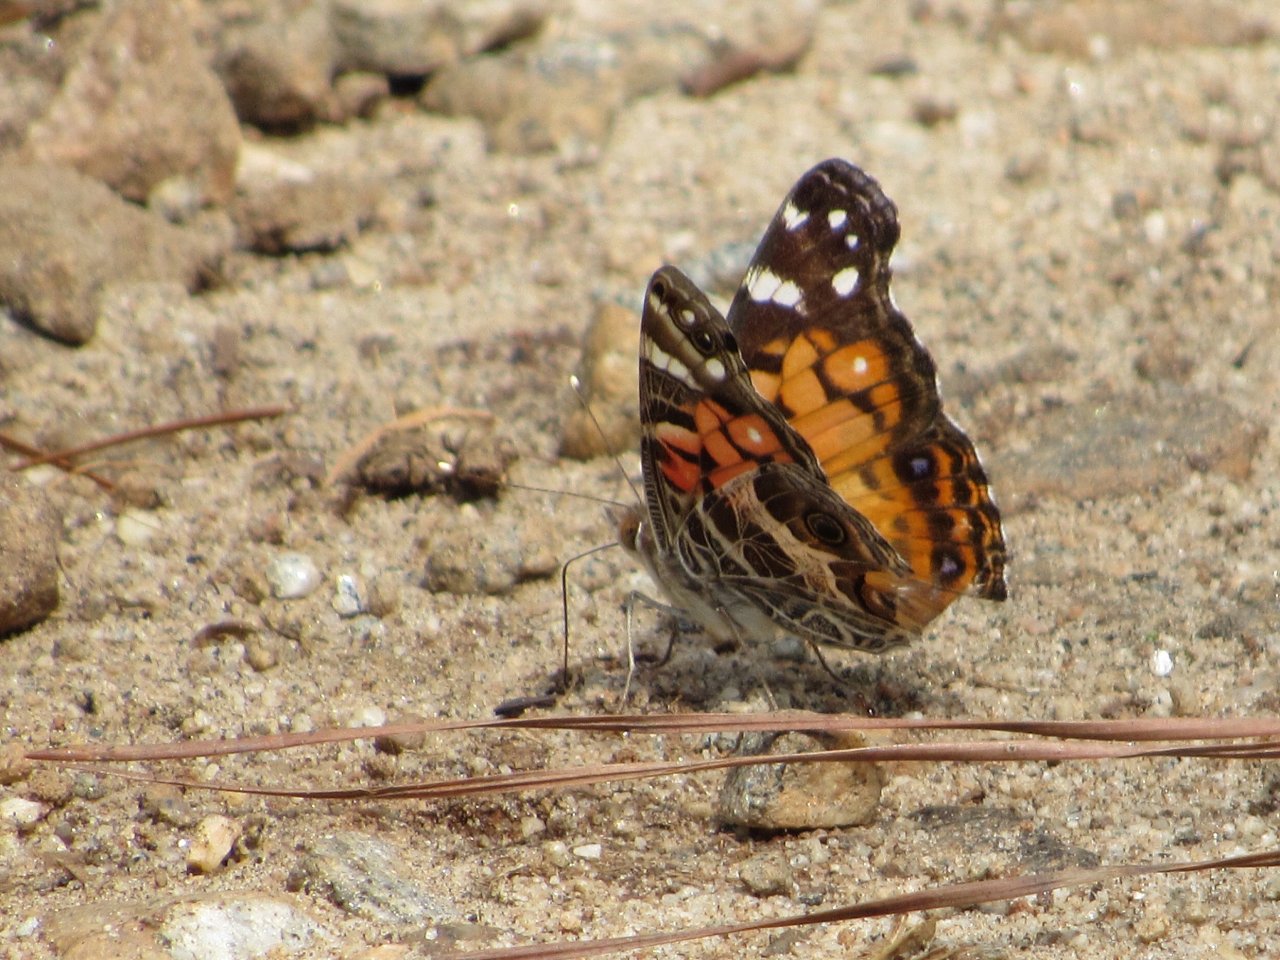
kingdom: Animalia
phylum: Arthropoda
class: Insecta
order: Lepidoptera
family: Nymphalidae
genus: Vanessa
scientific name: Vanessa virginiensis
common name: American Lady
